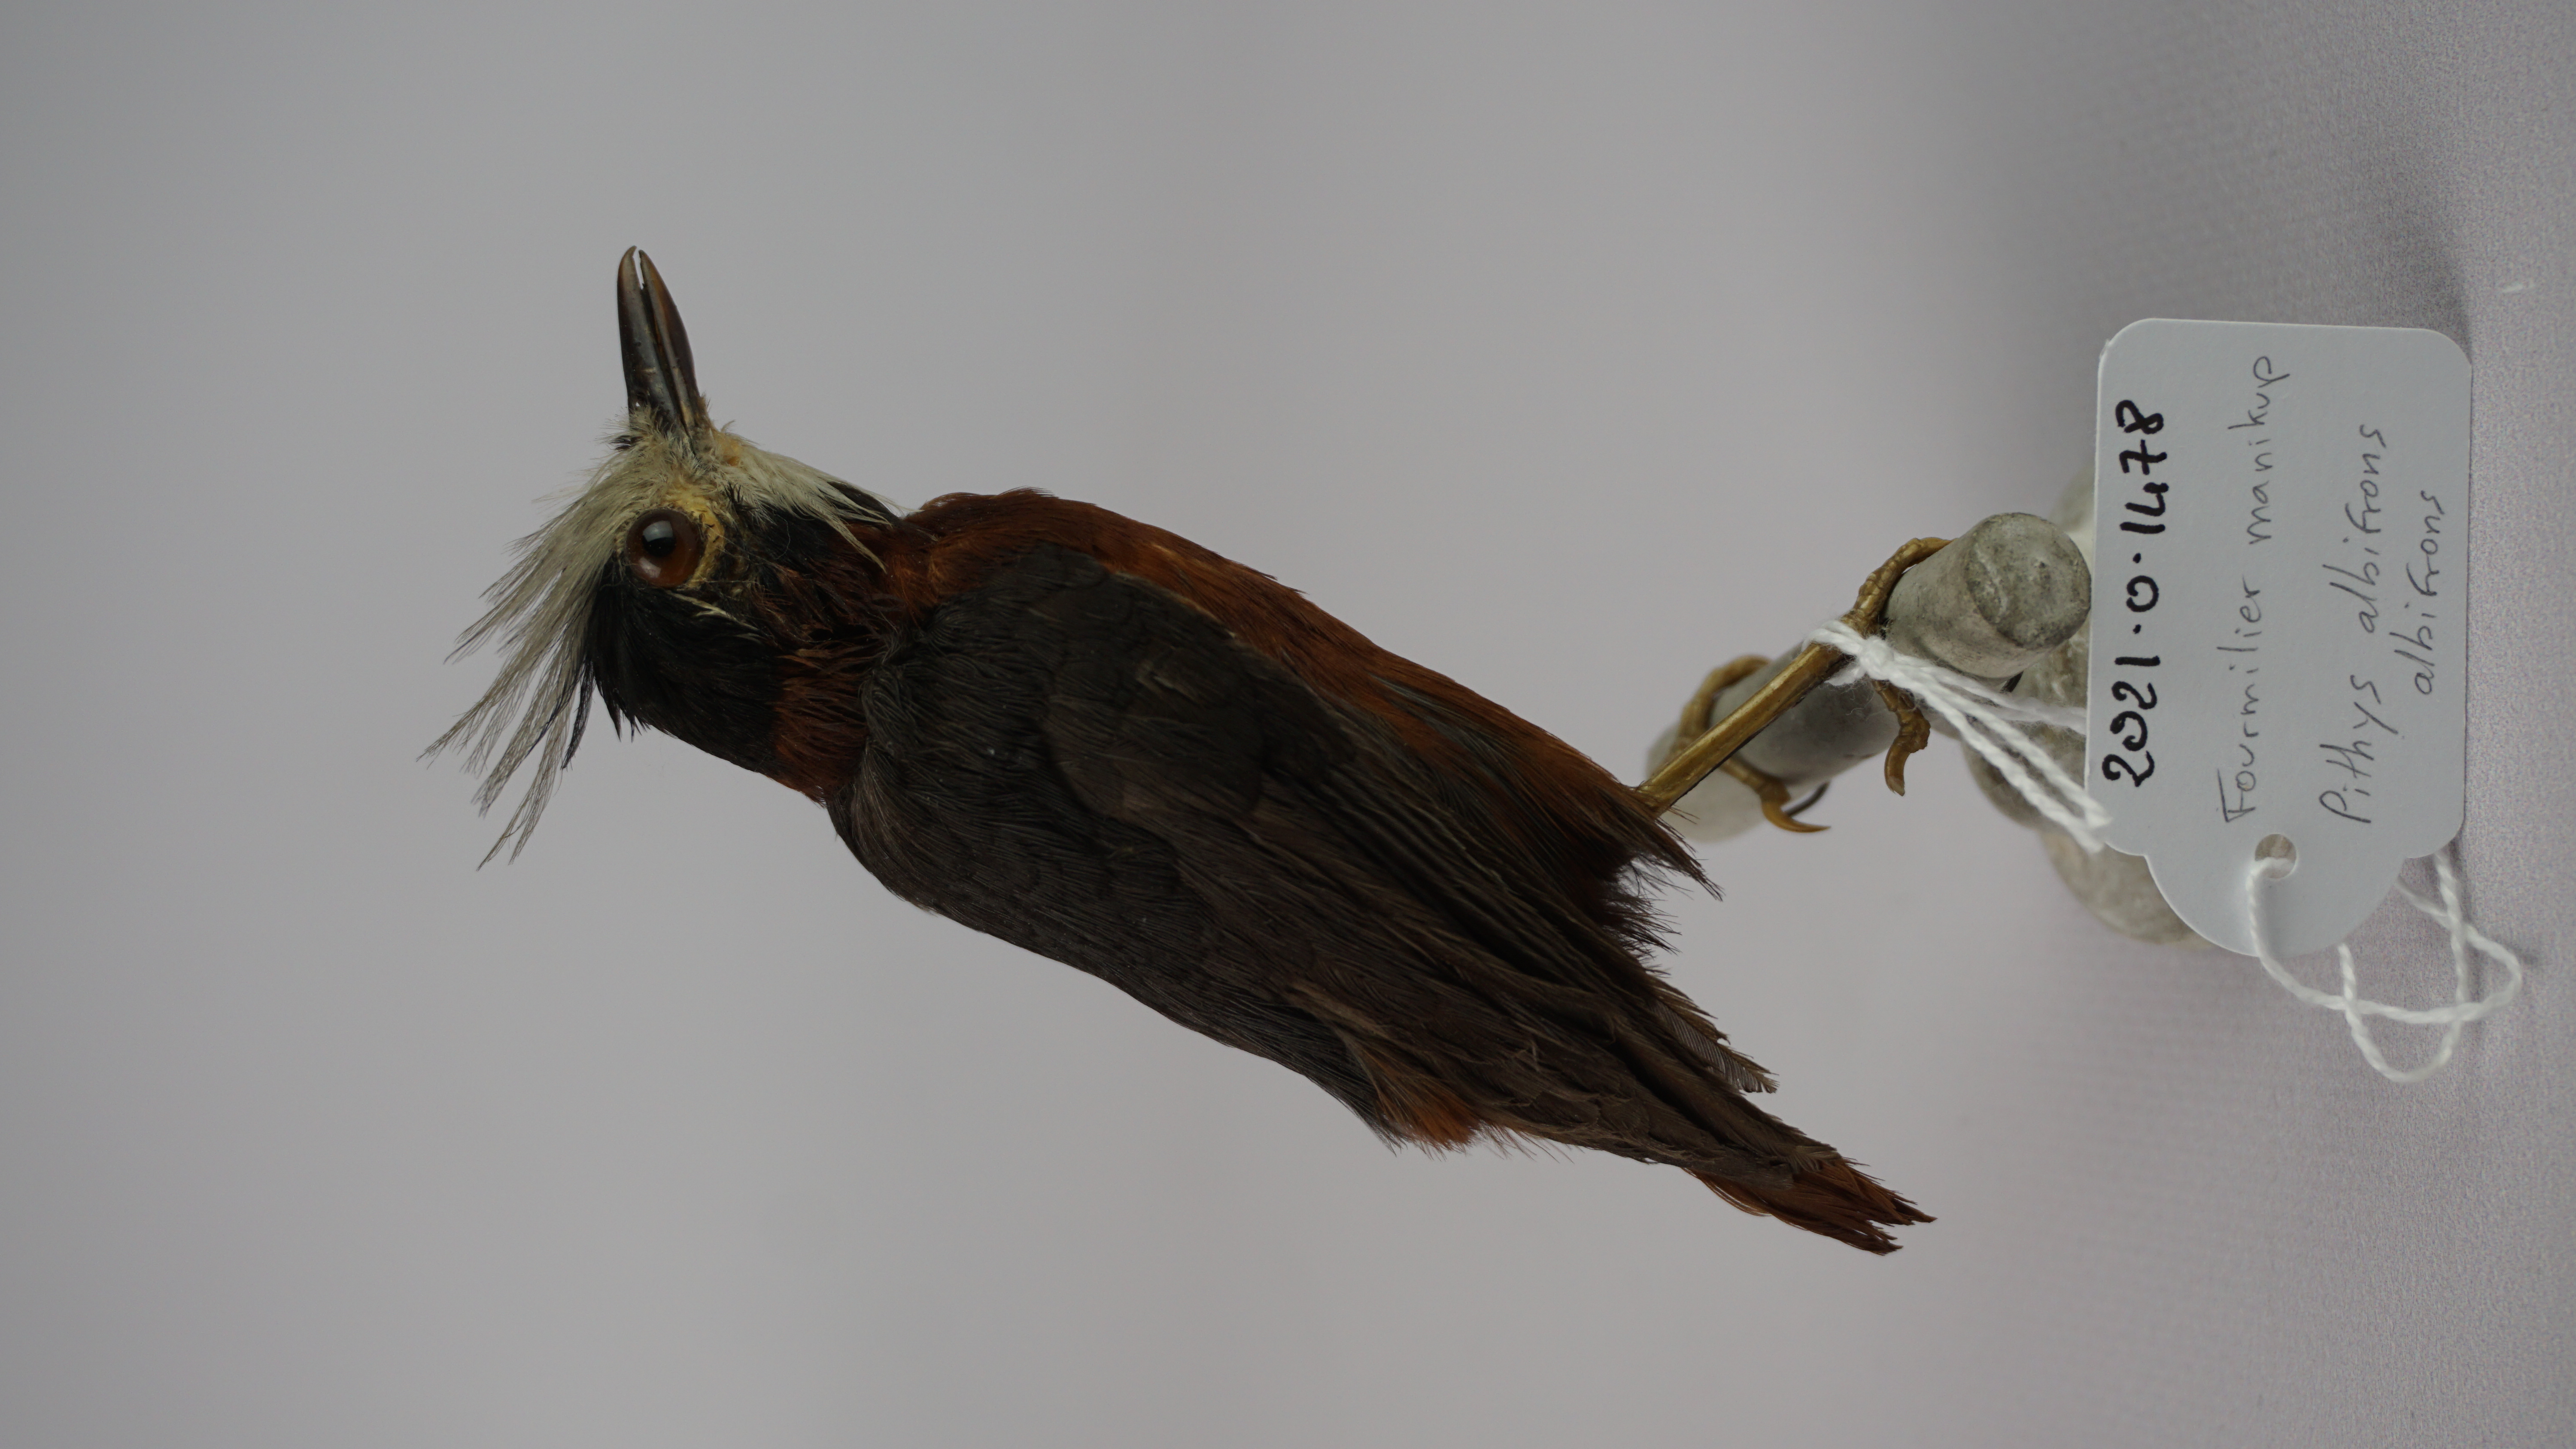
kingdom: Animalia
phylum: Chordata
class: Aves
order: Passeriformes
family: Thamnophilidae
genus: Pithys
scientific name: Pithys albifrons
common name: White-plumed antbird
